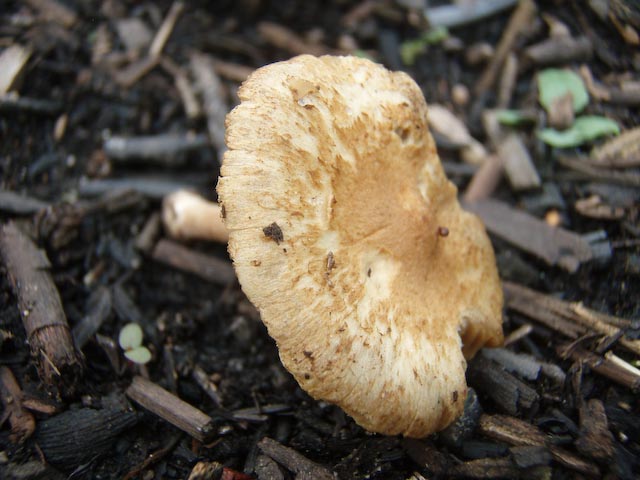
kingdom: Fungi
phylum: Basidiomycota
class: Agaricomycetes
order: Agaricales
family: Inocybaceae
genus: Inocybe
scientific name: Inocybe hirtella
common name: mandel-trævlhat
